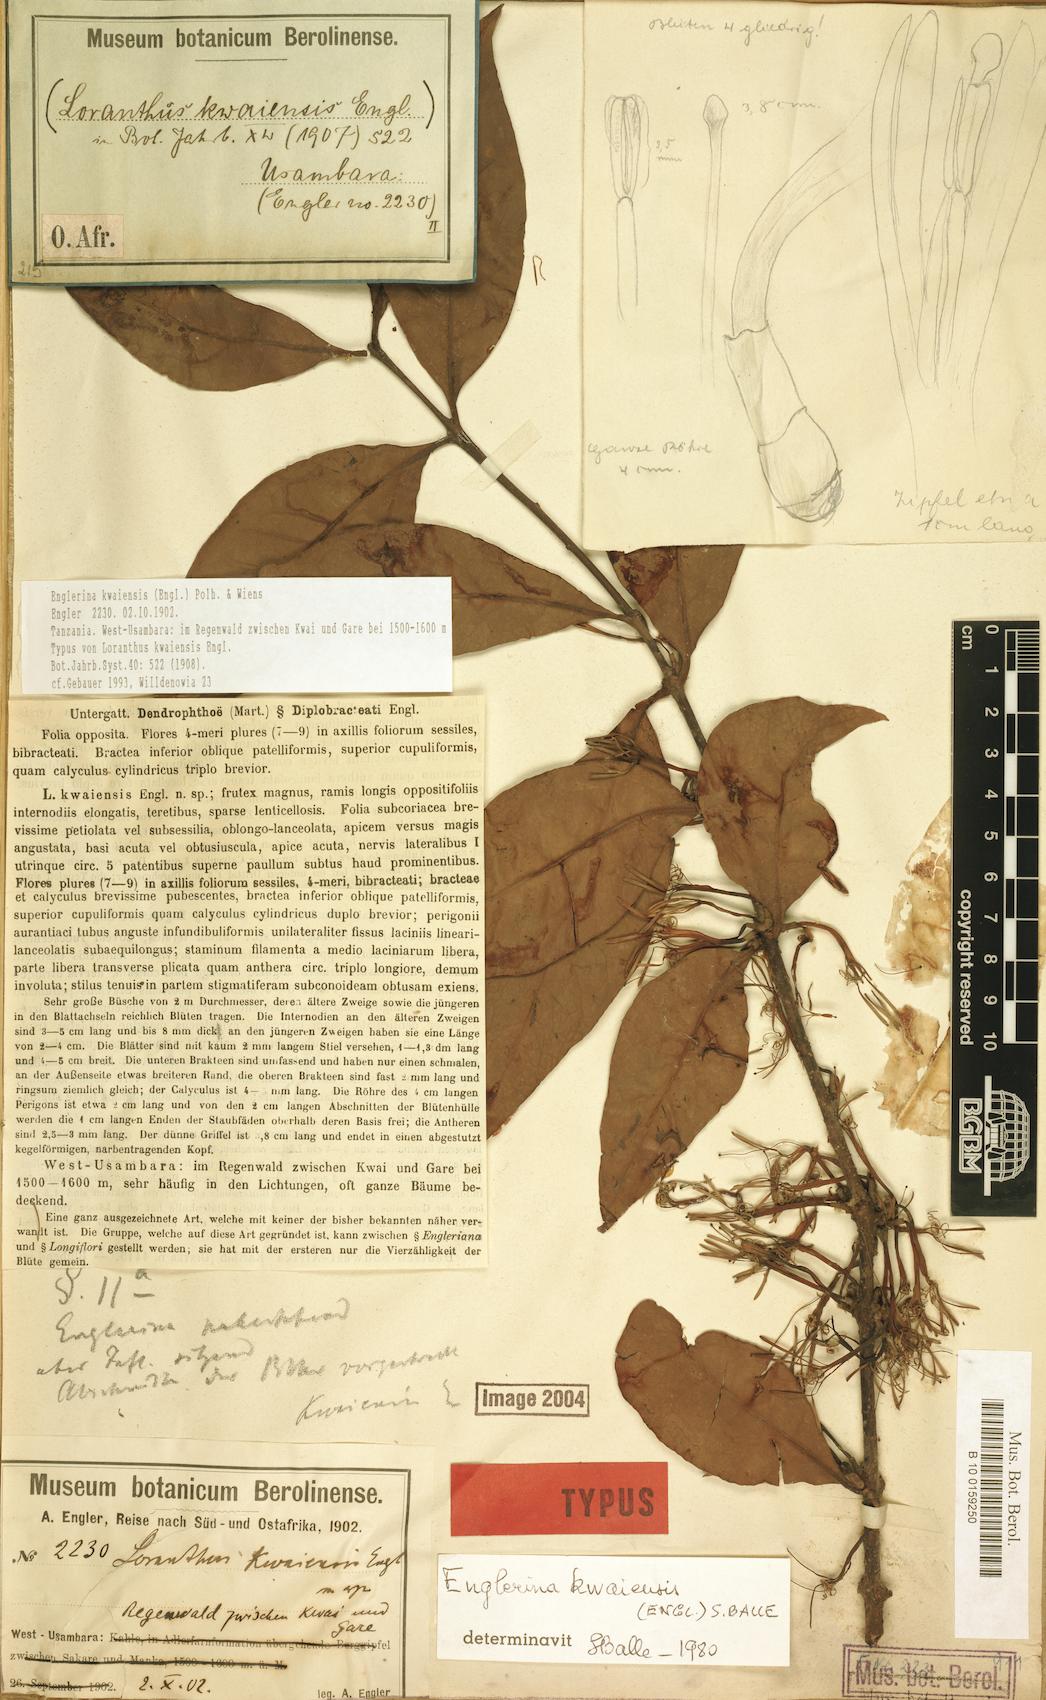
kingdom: Plantae
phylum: Tracheophyta
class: Magnoliopsida
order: Santalales
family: Loranthaceae
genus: Englerina
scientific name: Englerina kwaiensis
